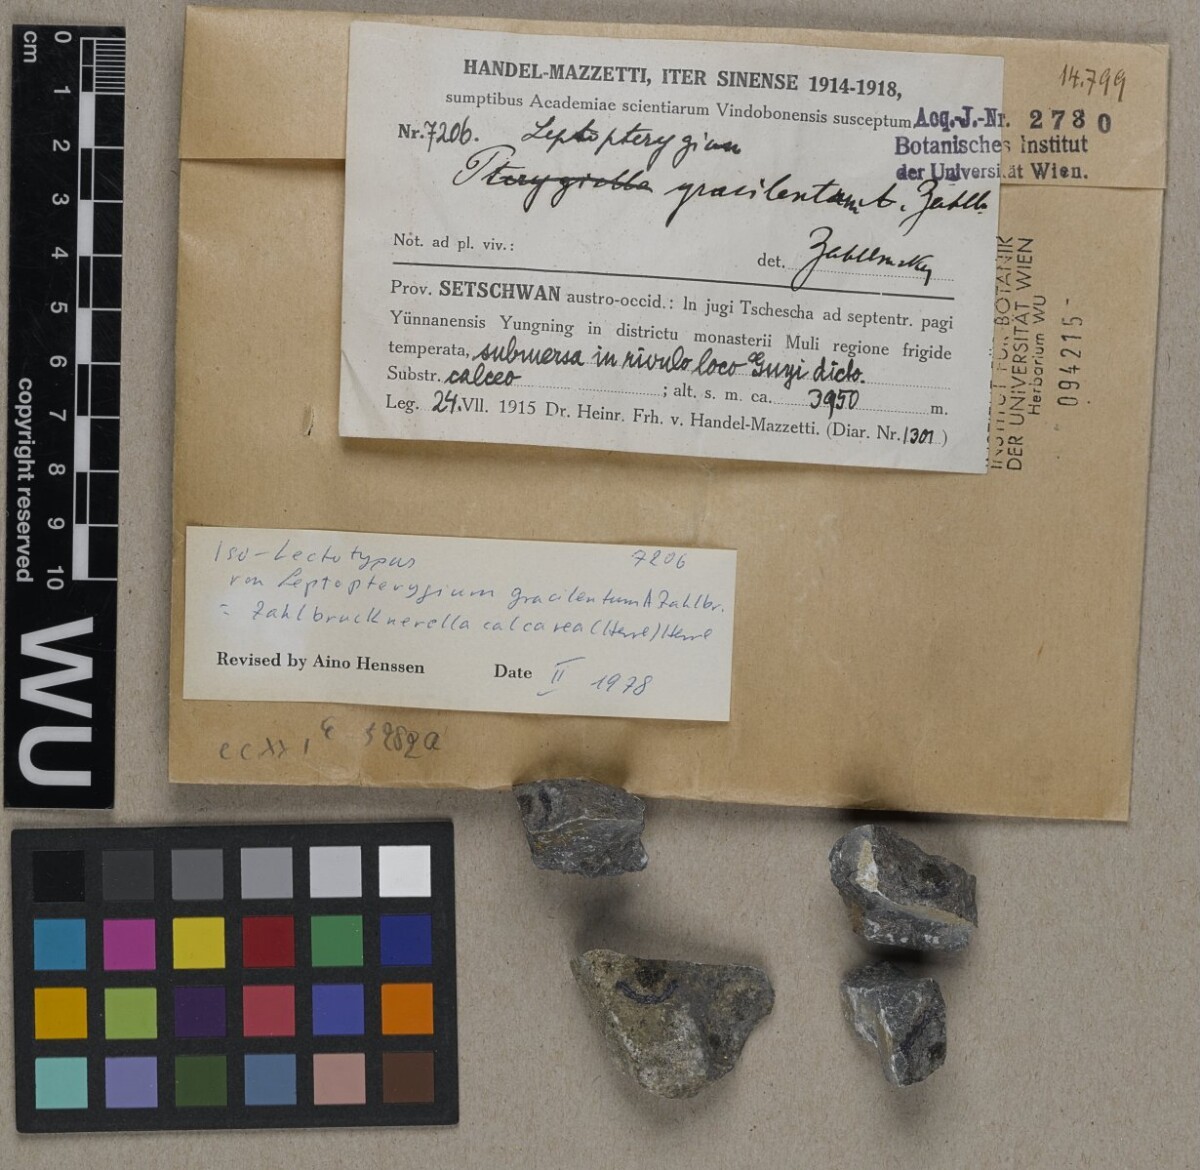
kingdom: Fungi
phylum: Ascomycota
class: Lichinomycetes
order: Lichinales
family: Lichinaceae
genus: Zahlbrucknerella
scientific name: Zahlbrucknerella
